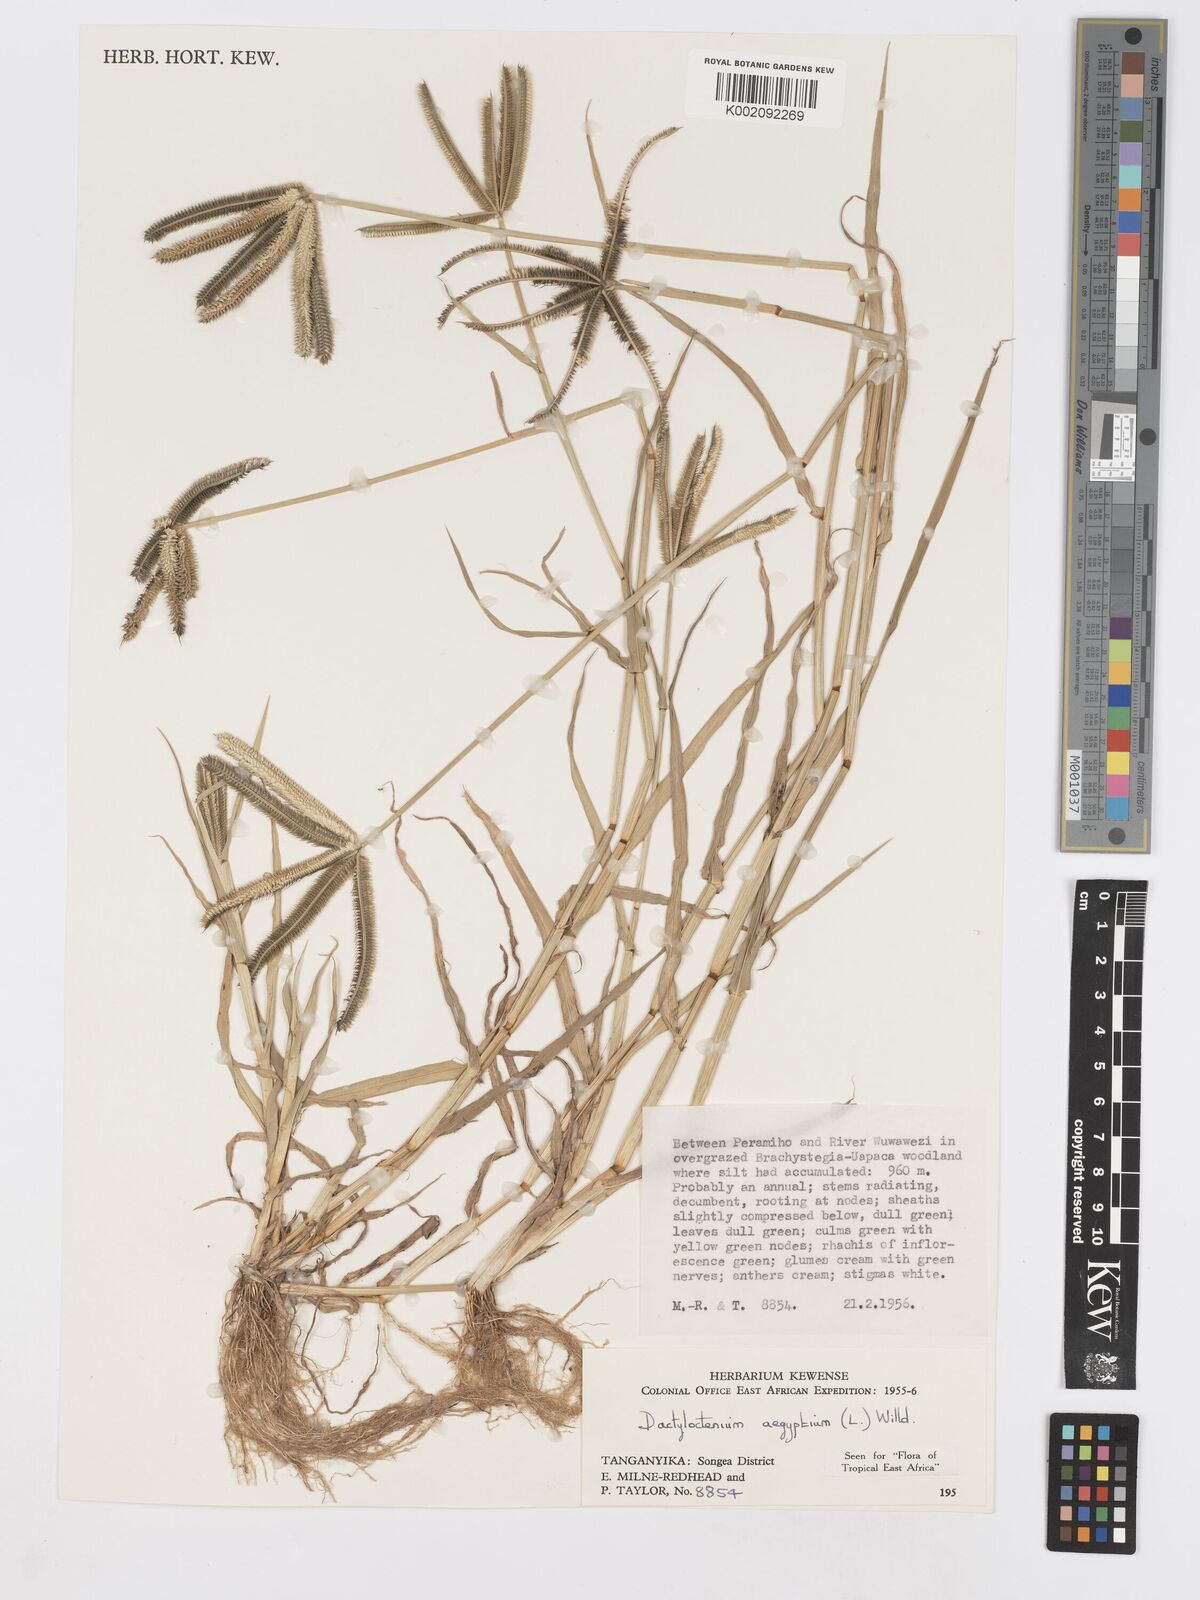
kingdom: Plantae
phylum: Tracheophyta
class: Liliopsida
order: Poales
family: Poaceae
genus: Dactyloctenium
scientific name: Dactyloctenium aegyptium
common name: Egyptian grass
